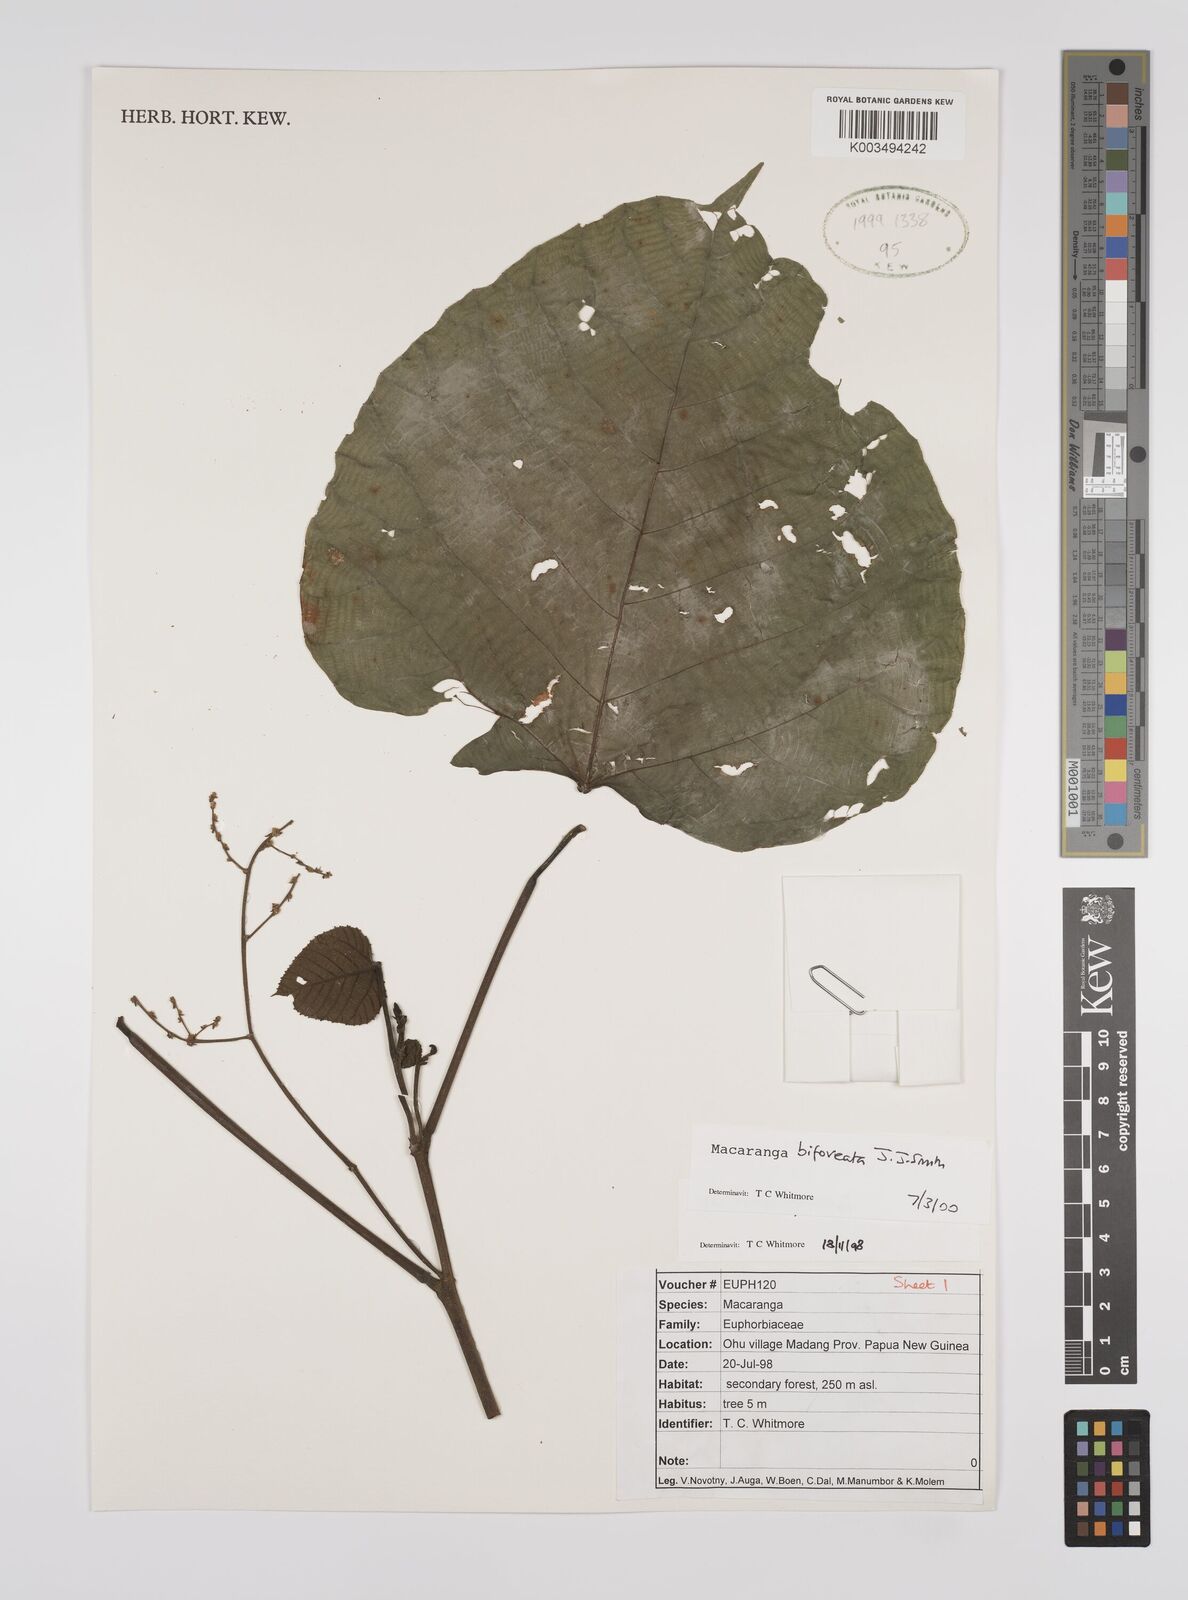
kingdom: Plantae
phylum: Tracheophyta
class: Magnoliopsida
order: Malpighiales
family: Euphorbiaceae
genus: Macaranga
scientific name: Macaranga bifoveata
